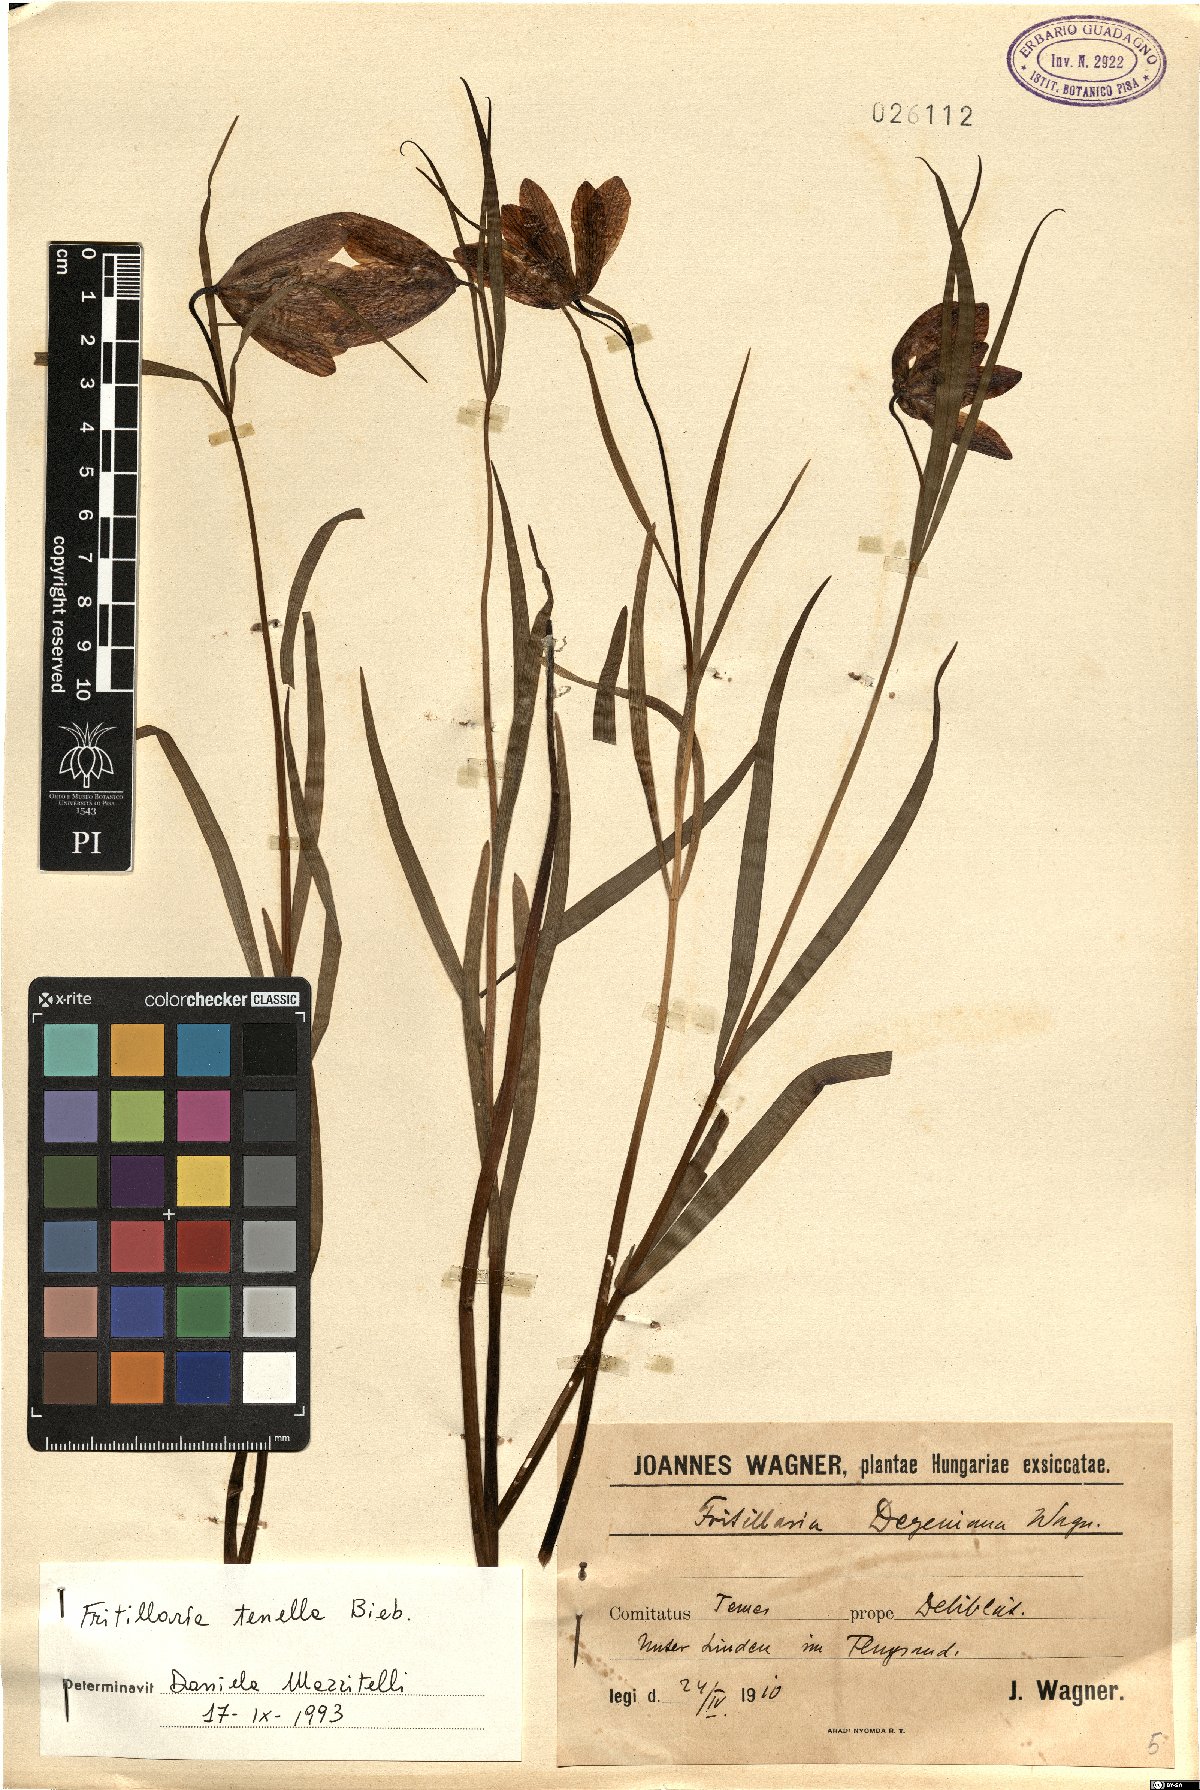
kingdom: Plantae
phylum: Tracheophyta
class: Liliopsida
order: Liliales
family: Liliaceae
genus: Fritillaria
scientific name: Fritillaria orientalis
